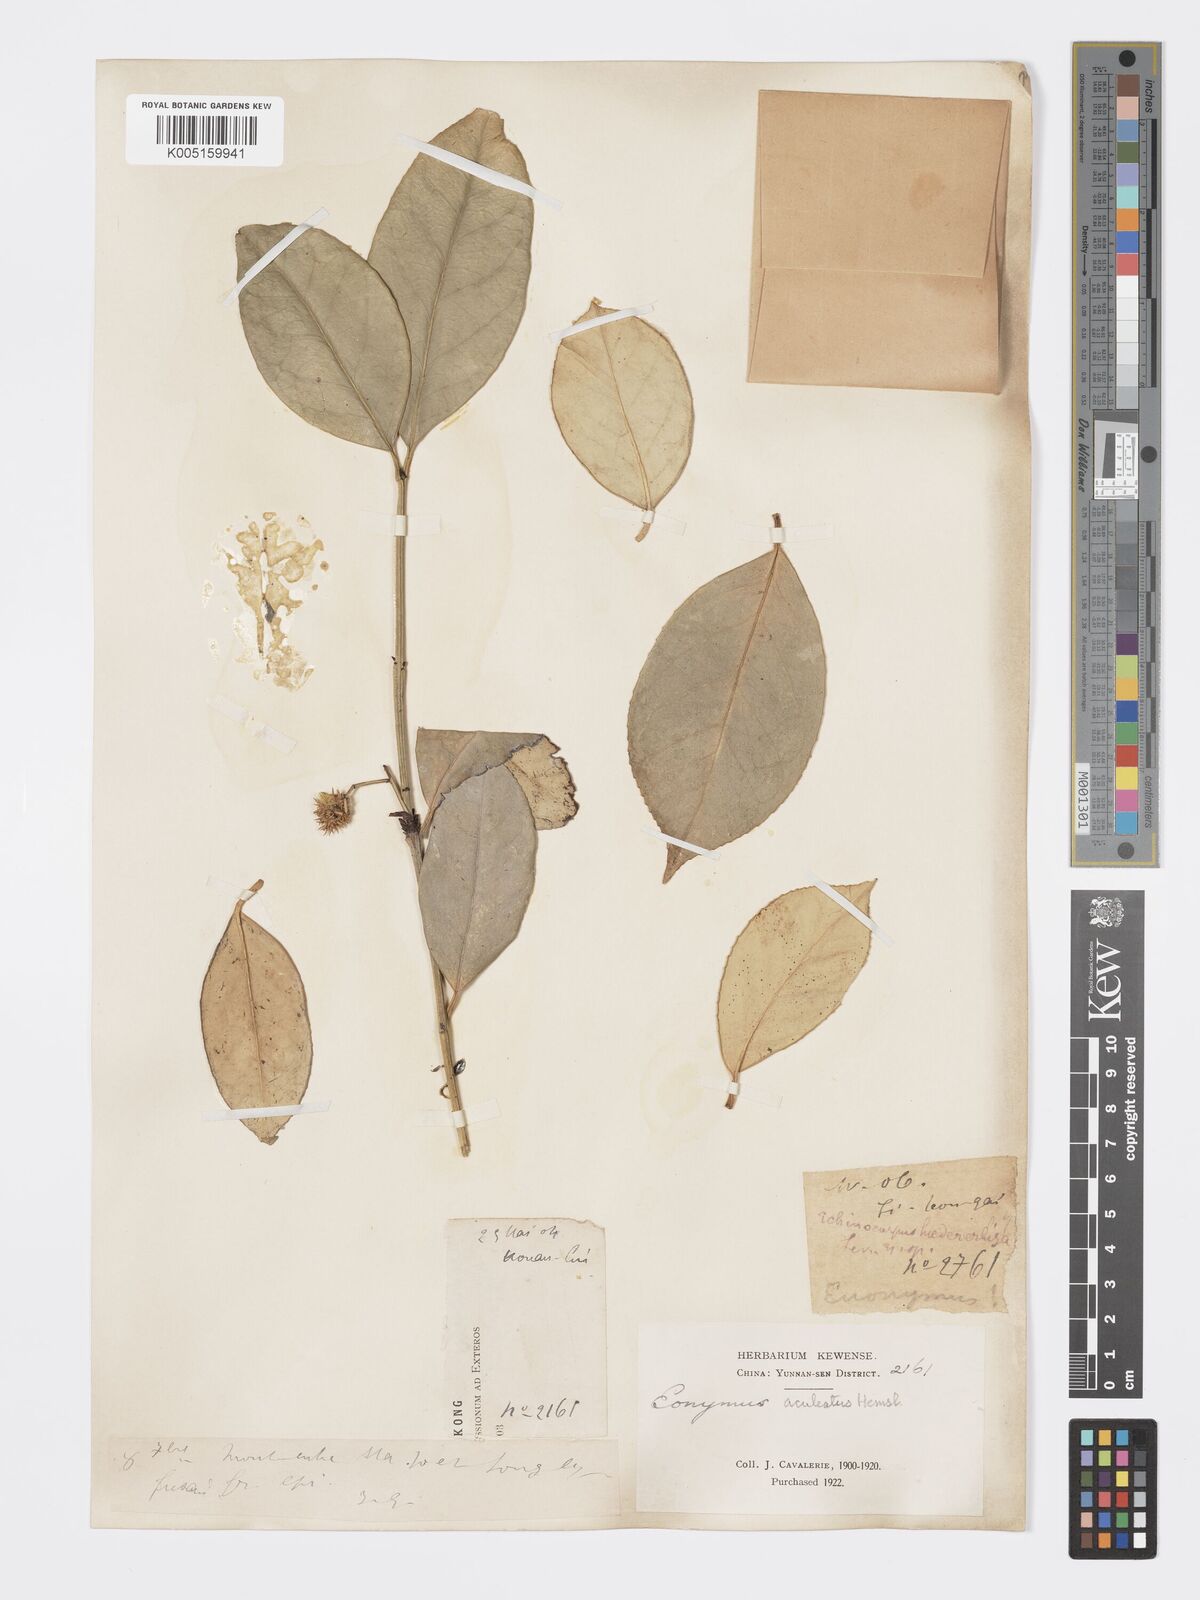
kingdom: Plantae
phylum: Tracheophyta
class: Magnoliopsida
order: Celastrales
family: Celastraceae
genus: Euonymus
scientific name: Euonymus aculeatus
